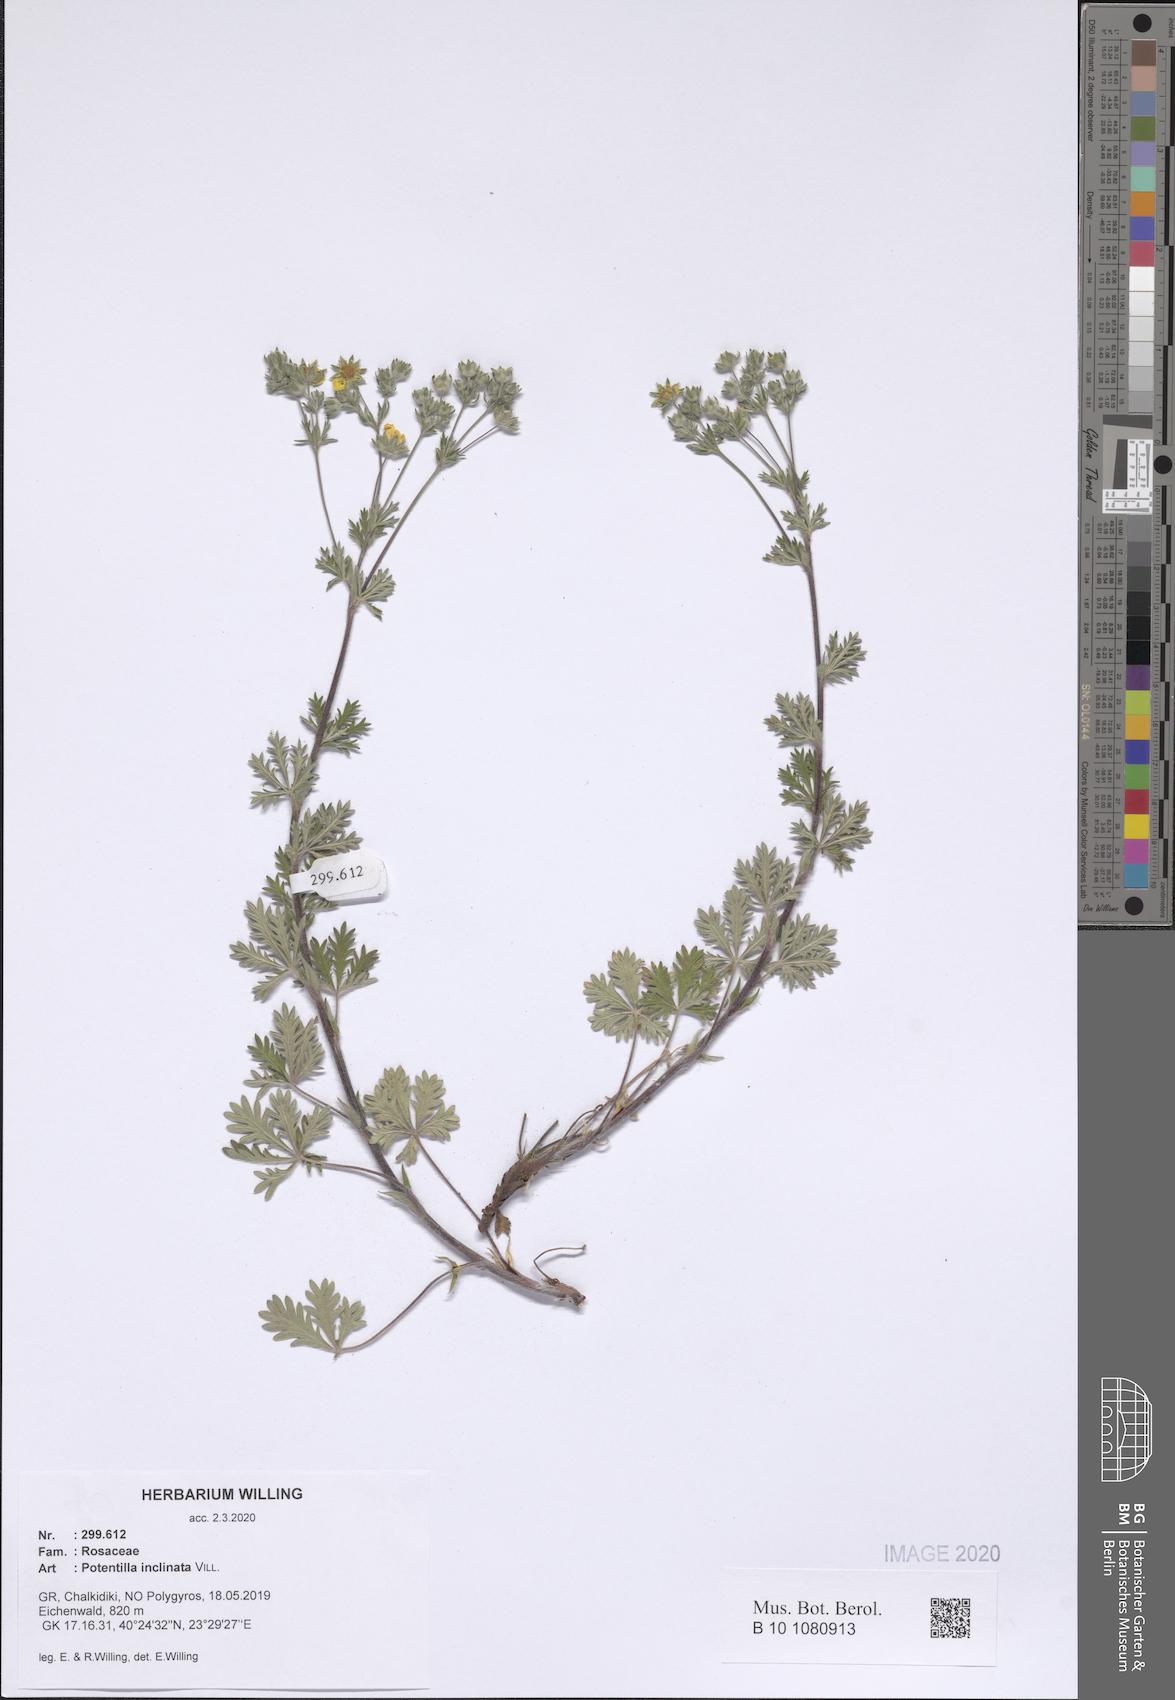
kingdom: Plantae
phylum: Tracheophyta
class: Magnoliopsida
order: Rosales
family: Rosaceae
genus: Potentilla
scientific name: Potentilla inclinata
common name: Grey cinquefoil
